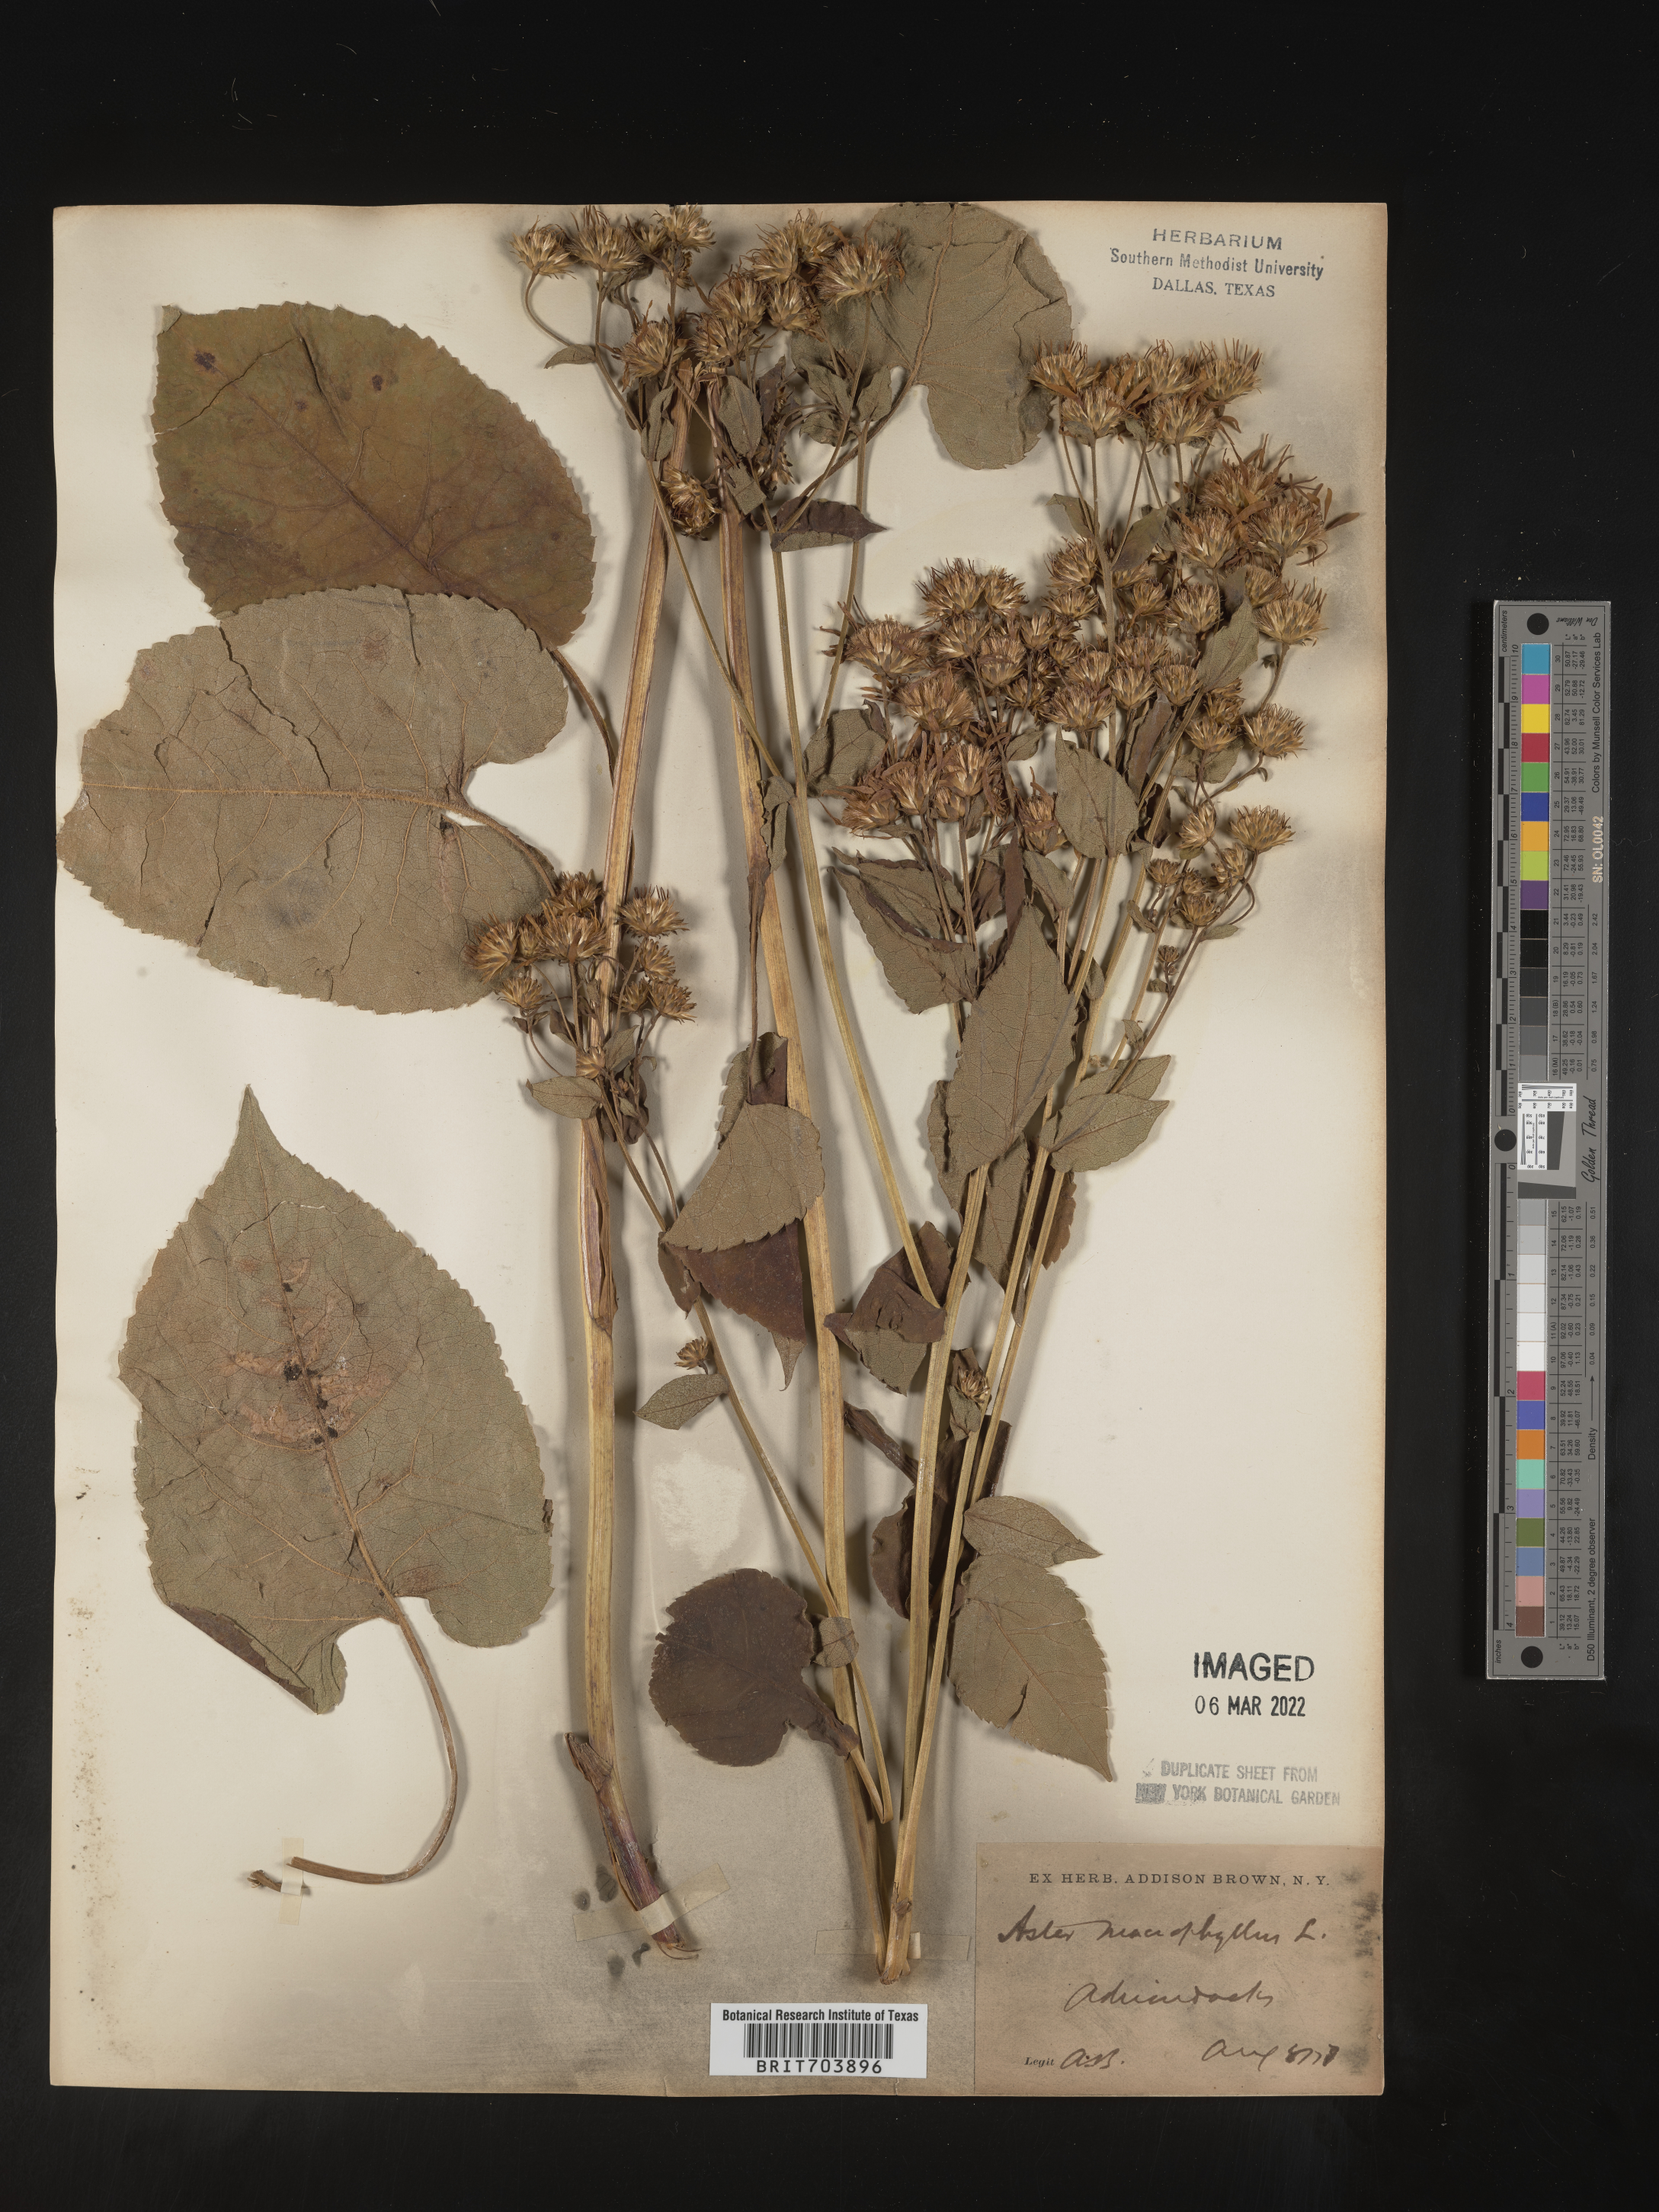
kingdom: Plantae
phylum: Tracheophyta
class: Magnoliopsida
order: Asterales
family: Asteraceae
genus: Eurybia
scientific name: Eurybia macrophylla
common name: Big-leaved aster
